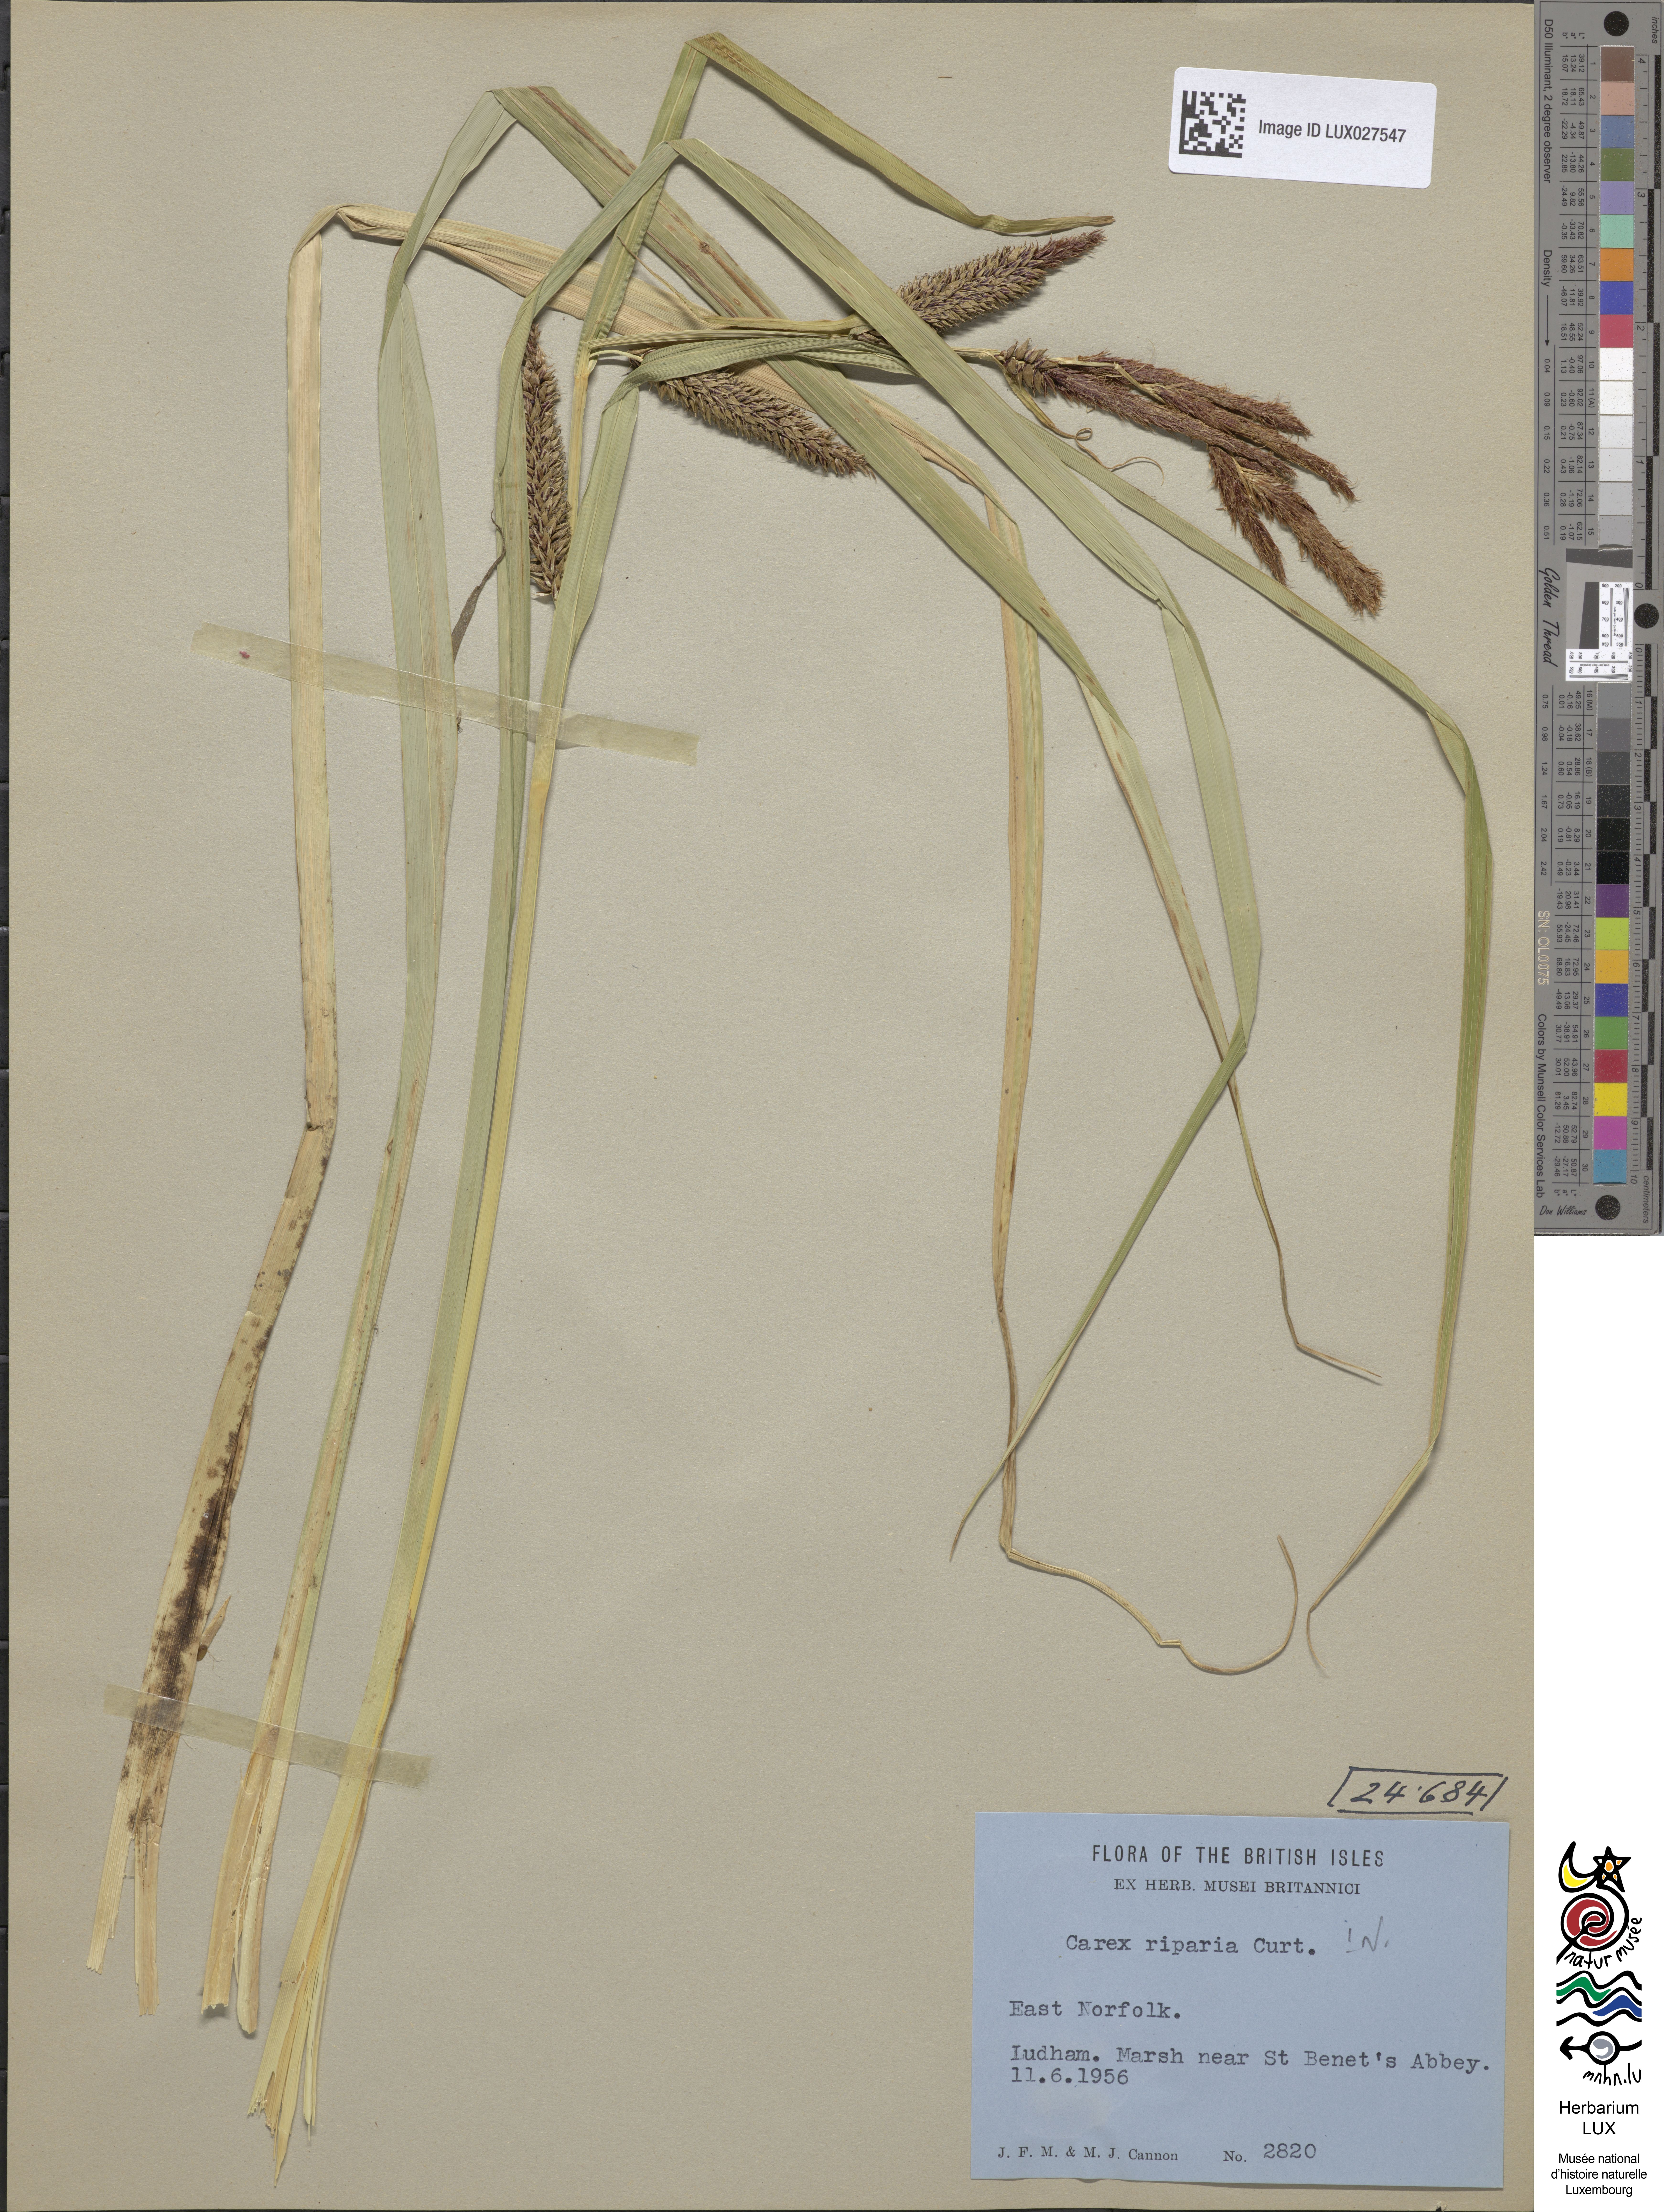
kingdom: Plantae
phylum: Tracheophyta
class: Liliopsida
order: Poales
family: Cyperaceae
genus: Carex
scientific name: Carex riparia
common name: Greater pond-sedge
